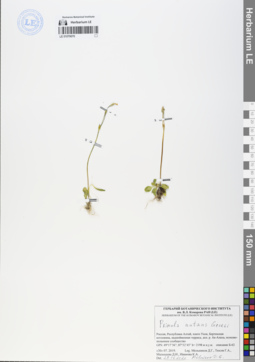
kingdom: Plantae
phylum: Tracheophyta
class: Magnoliopsida
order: Ericales
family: Primulaceae
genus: Primula
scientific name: Primula nutans
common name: Siberian primrose
